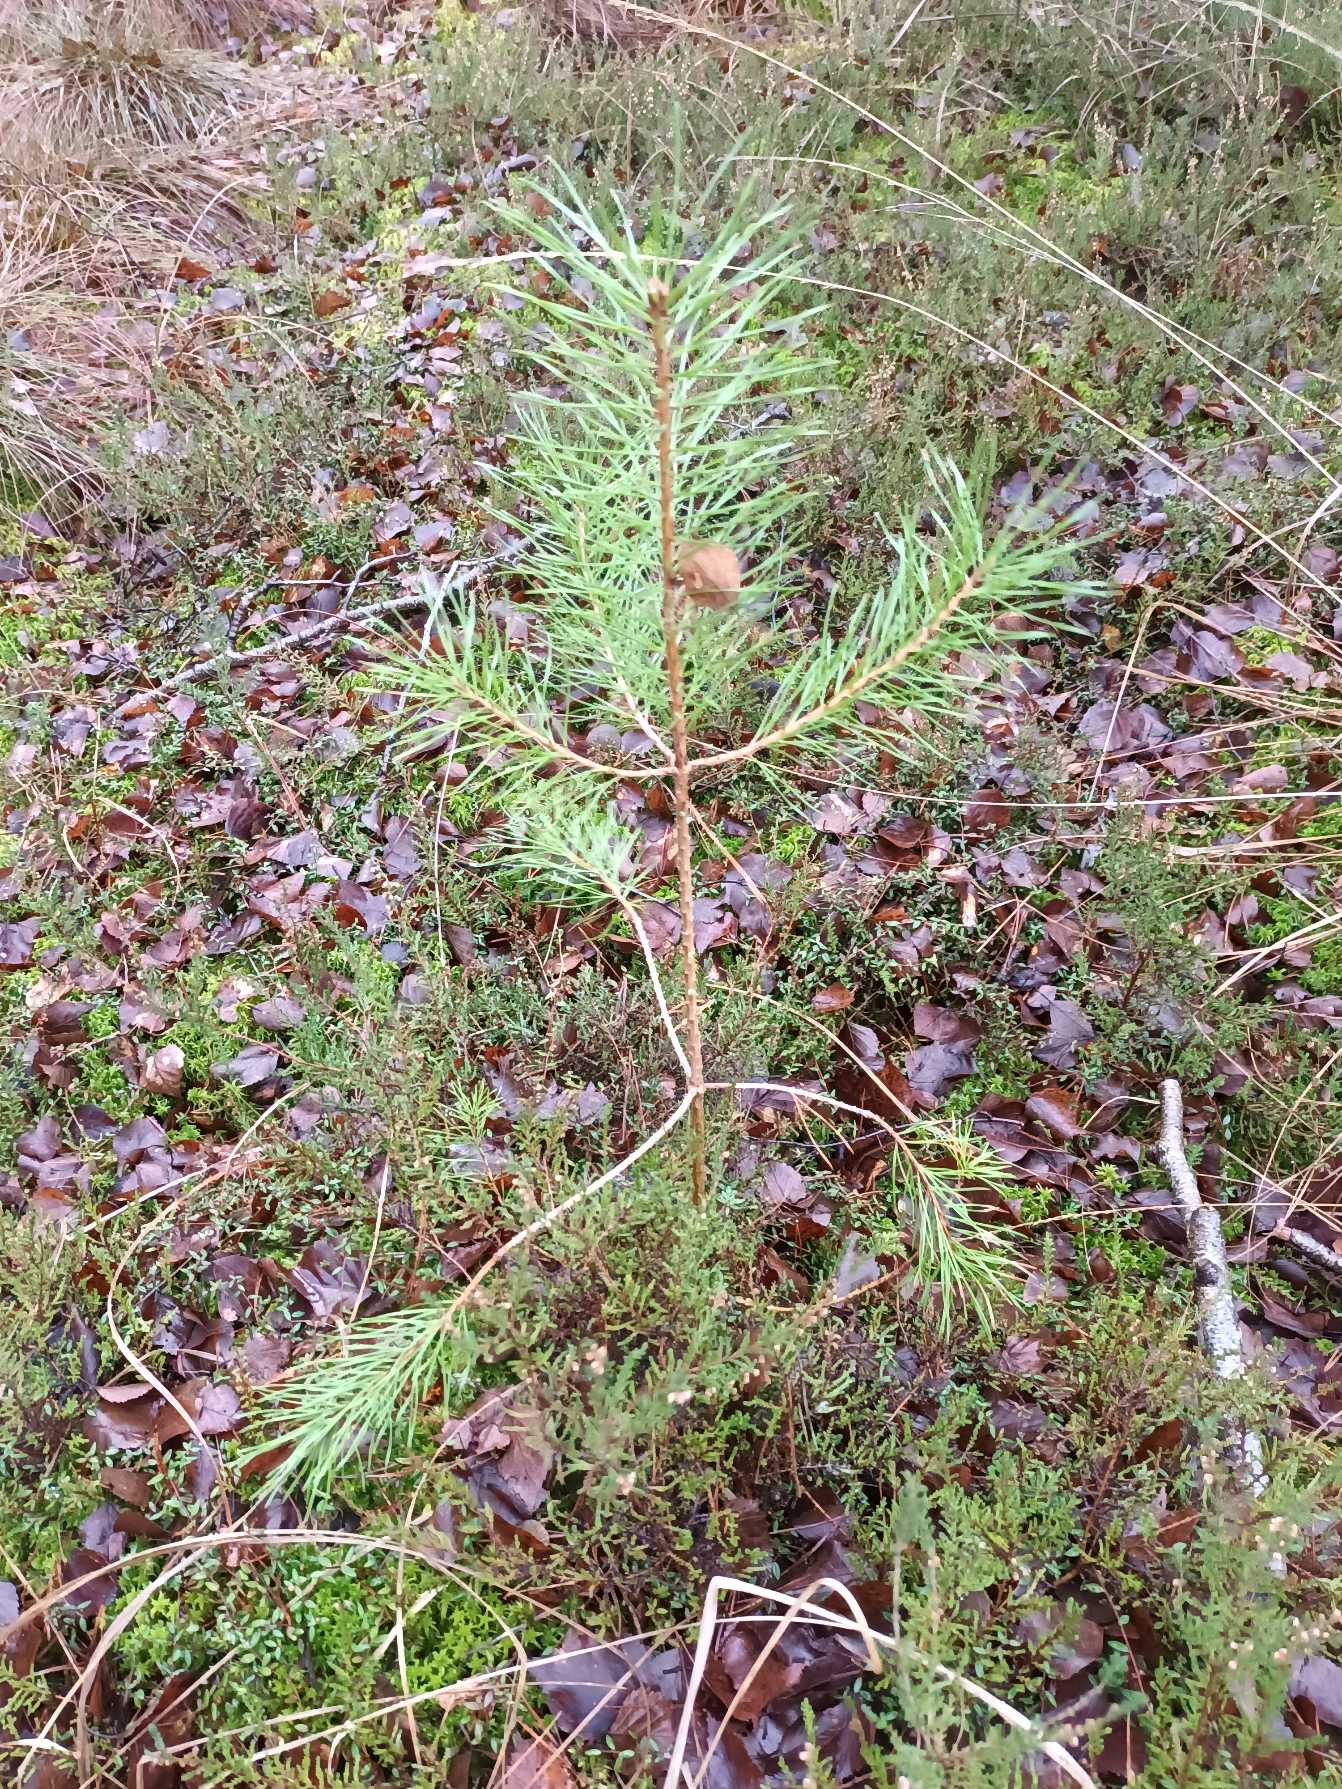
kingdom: Plantae
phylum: Tracheophyta
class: Pinopsida
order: Pinales
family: Pinaceae
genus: Pinus
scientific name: Pinus sylvestris
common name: Skov-fyr
